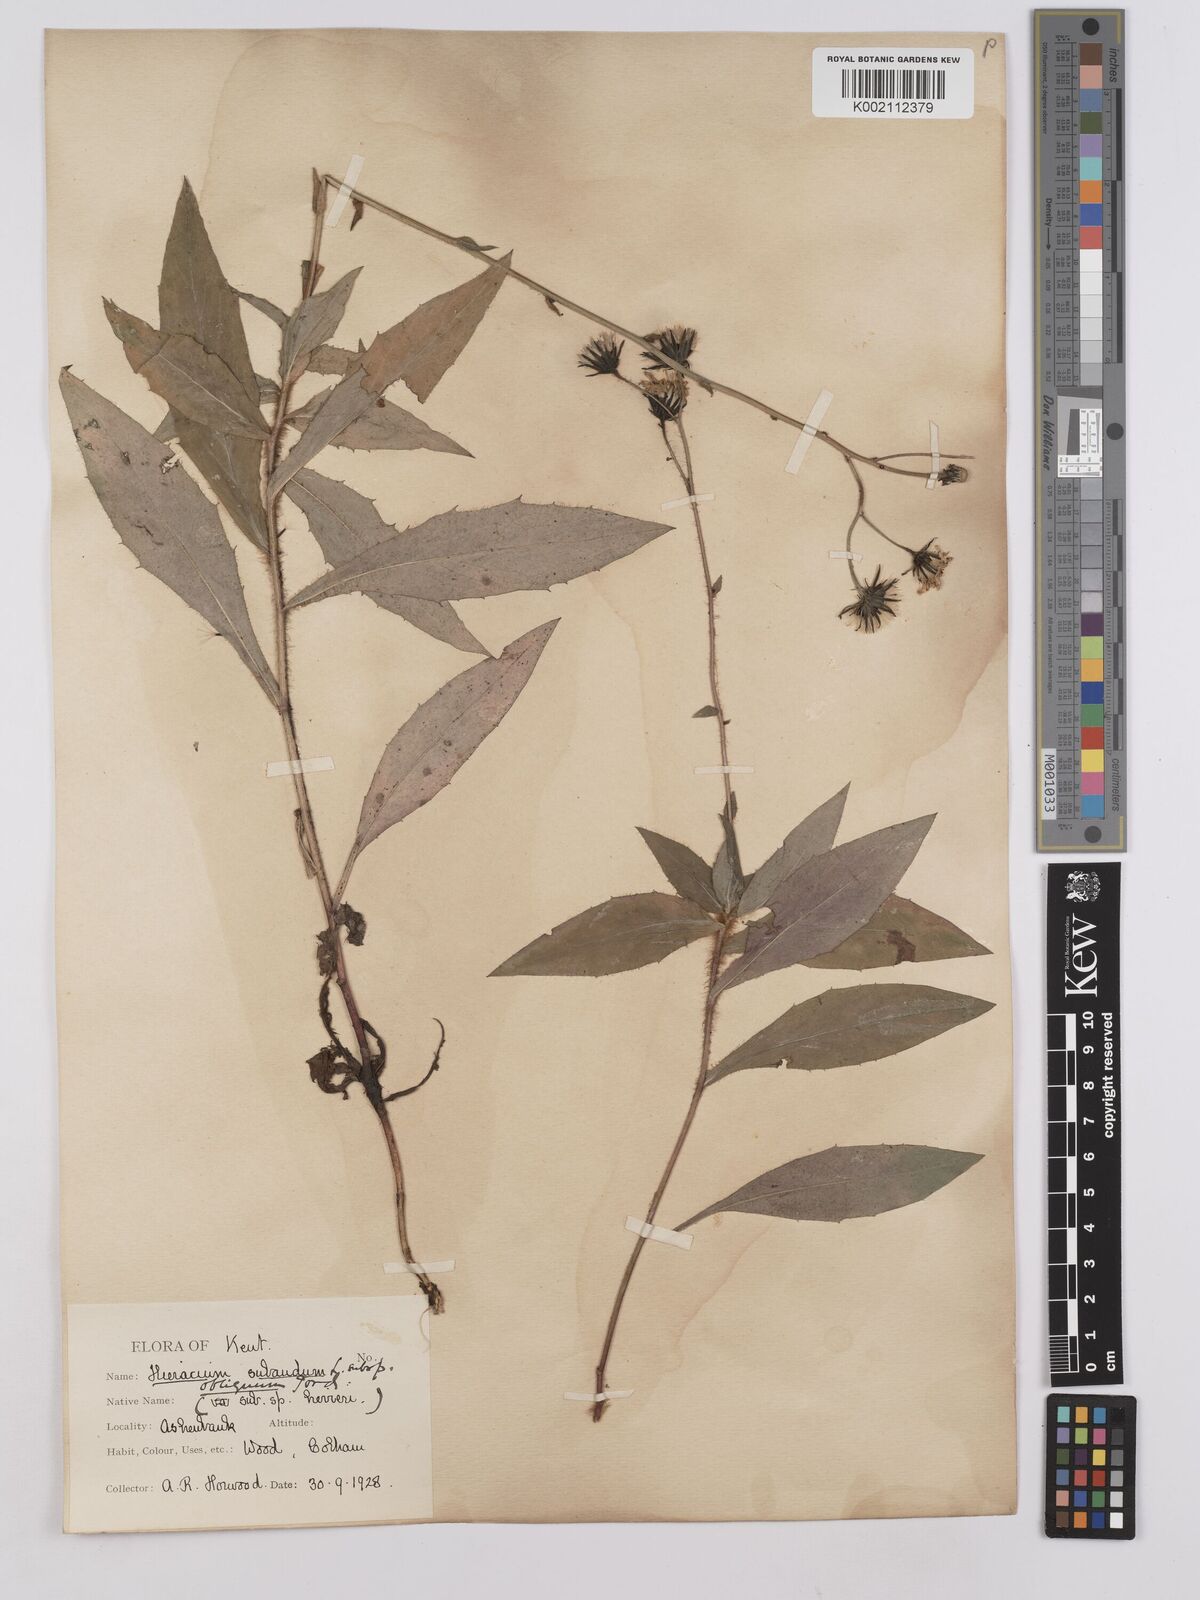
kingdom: Plantae
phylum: Tracheophyta
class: Magnoliopsida
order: Asterales
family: Asteraceae
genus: Hieracium
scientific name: Hieracium sabaudum
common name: New england hawkweed
